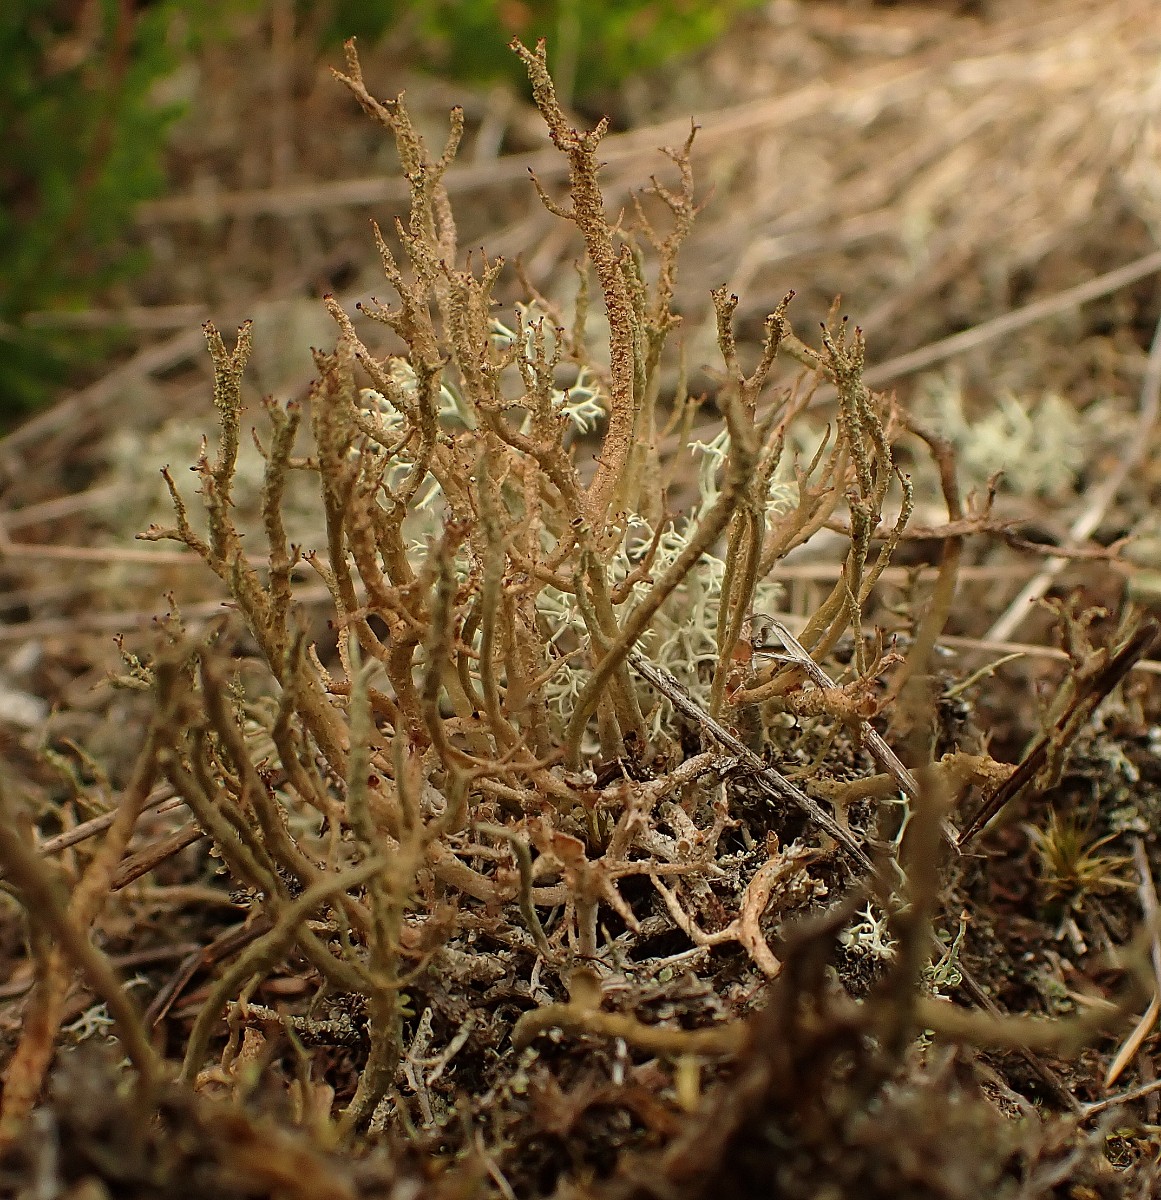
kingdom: Fungi
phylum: Ascomycota
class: Lecanoromycetes
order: Lecanorales
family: Cladoniaceae
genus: Cladonia
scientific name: Cladonia scabriuscula
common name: ru bægerlav
